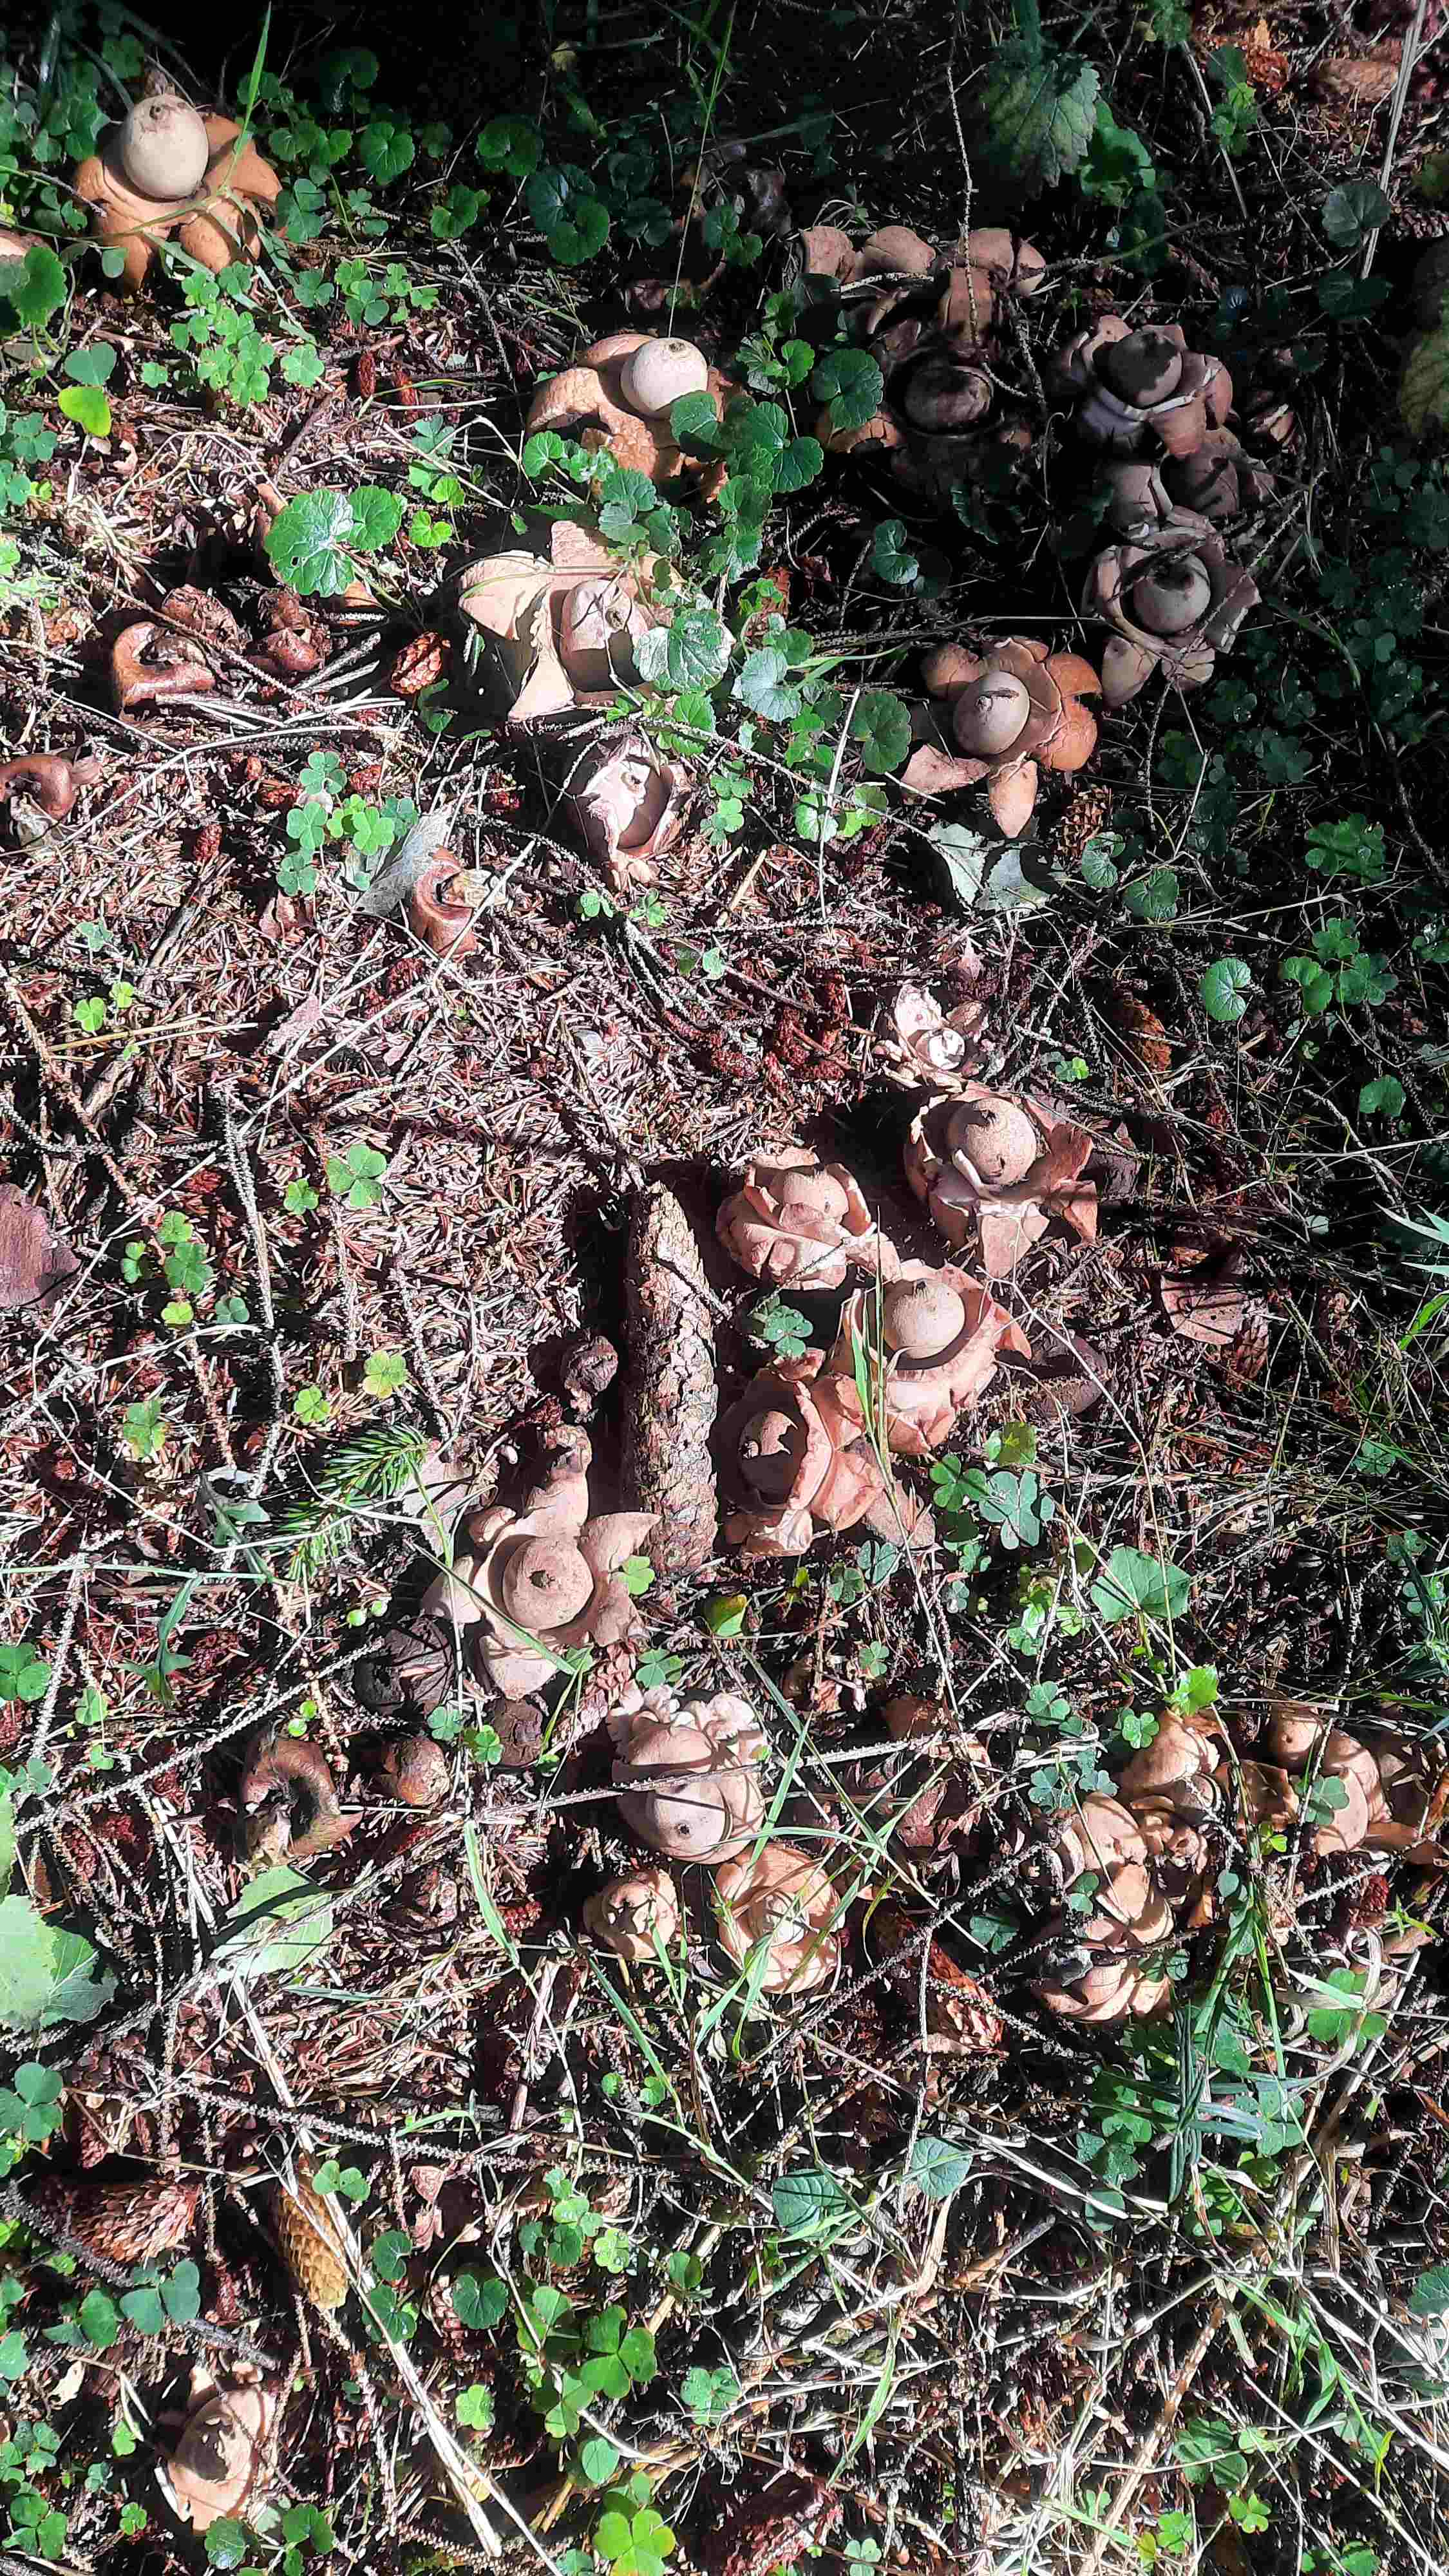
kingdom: Fungi
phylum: Basidiomycota
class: Agaricomycetes
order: Geastrales
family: Geastraceae
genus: Geastrum
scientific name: Geastrum michelianum
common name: kødet stjernebold
